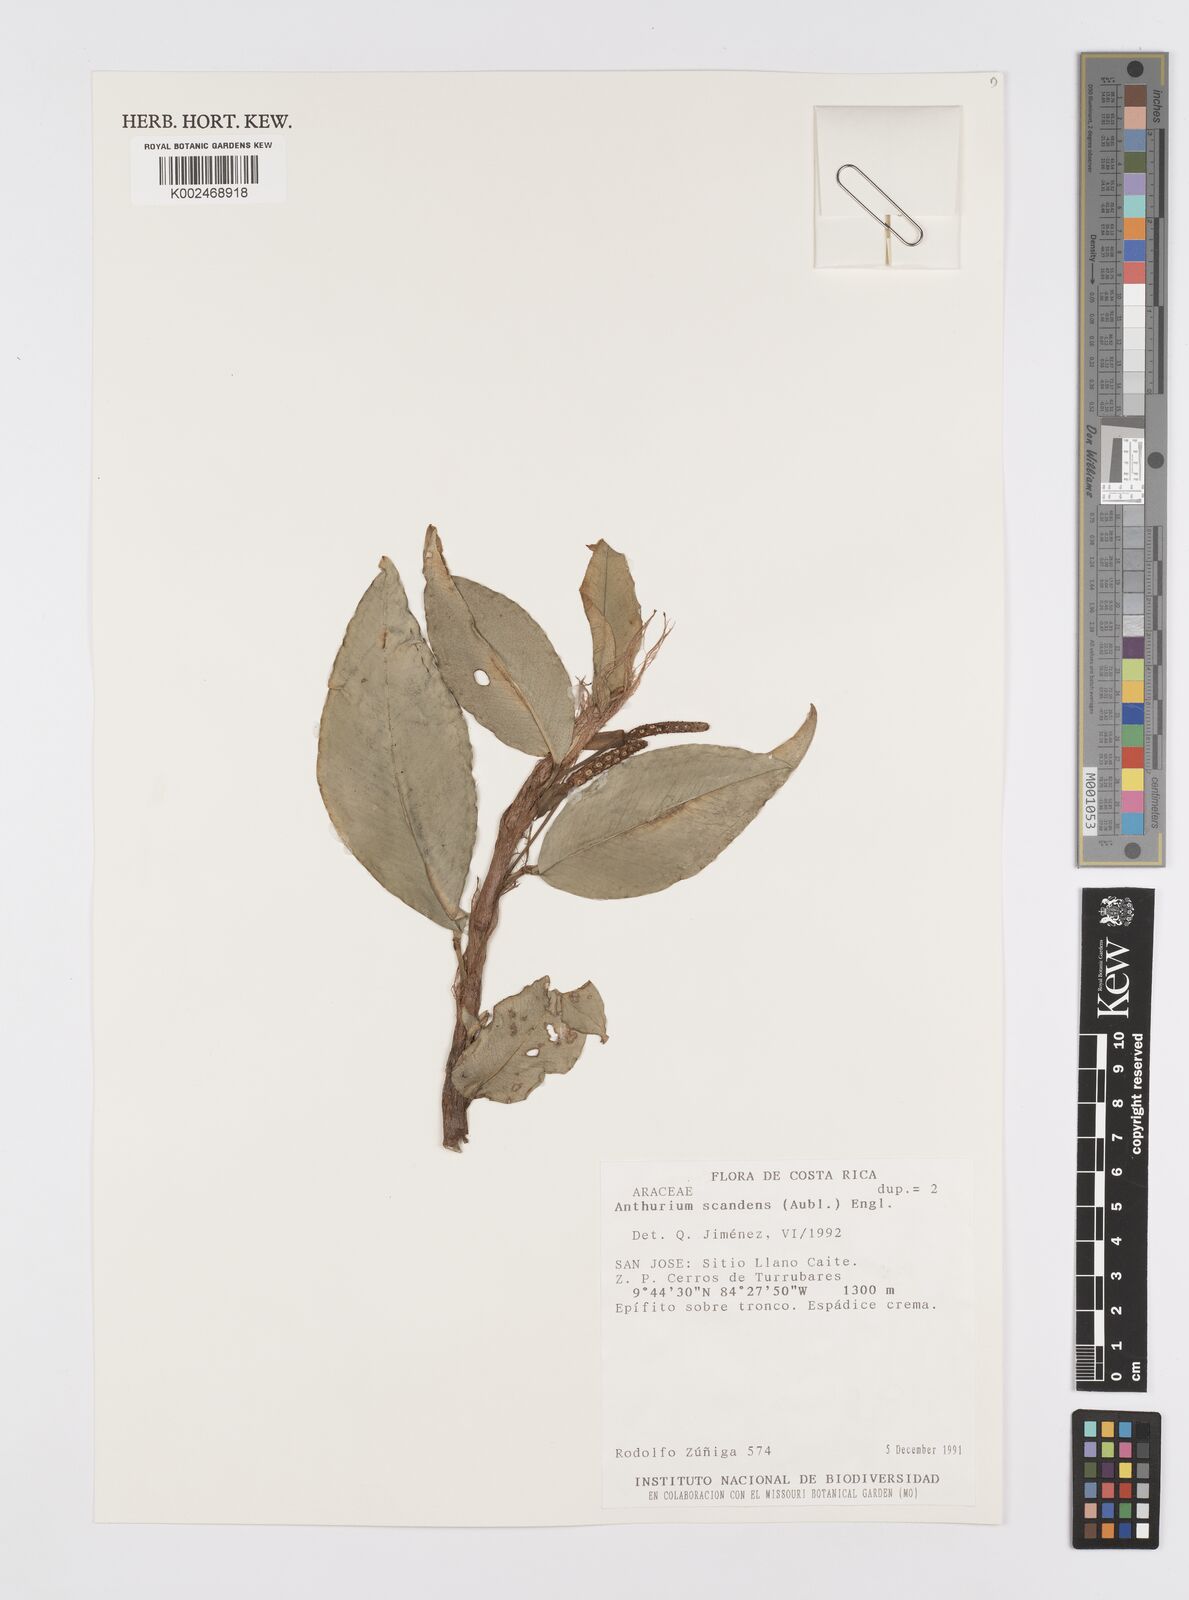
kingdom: Plantae
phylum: Tracheophyta
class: Liliopsida
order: Alismatales
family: Araceae
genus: Anthurium
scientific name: Anthurium scandens
